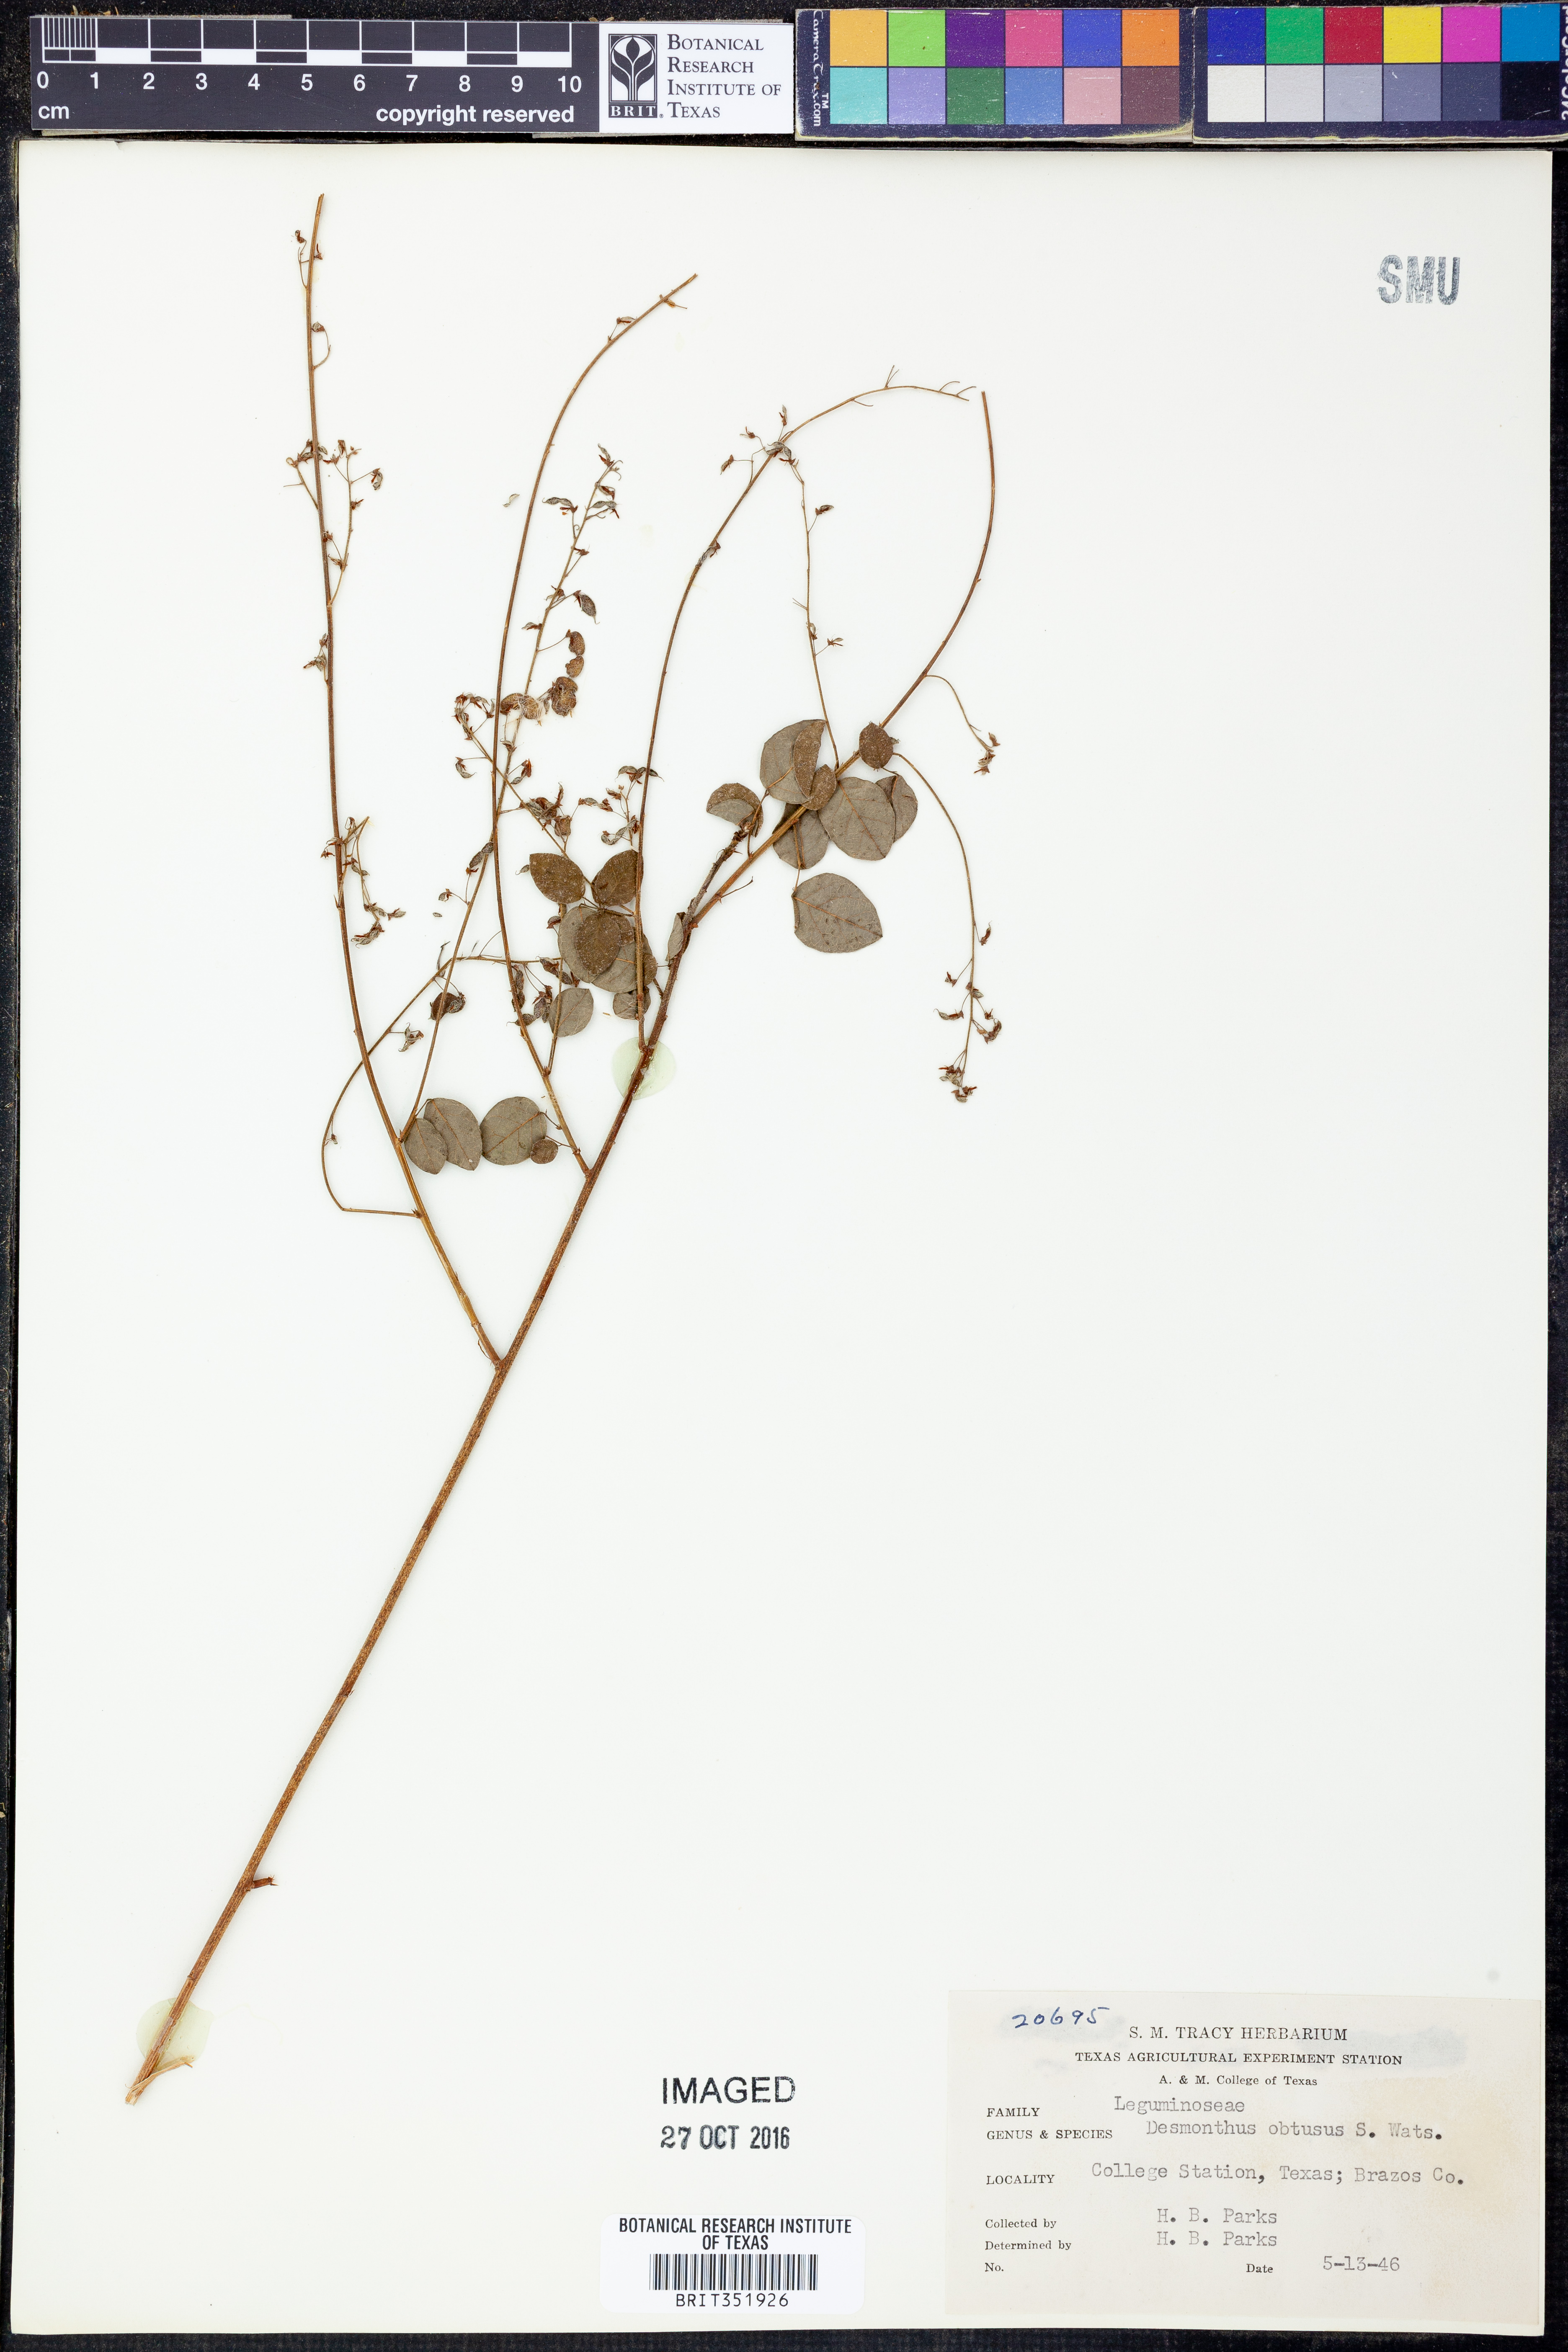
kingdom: Plantae
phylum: Tracheophyta
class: Magnoliopsida
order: Fabales
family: Fabaceae
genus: Desmanthus
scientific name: Desmanthus obtusus
